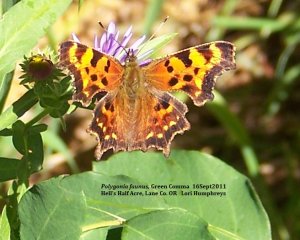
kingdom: Animalia
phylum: Arthropoda
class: Insecta
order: Lepidoptera
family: Nymphalidae
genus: Polygonia
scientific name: Polygonia faunus
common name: Green Comma
